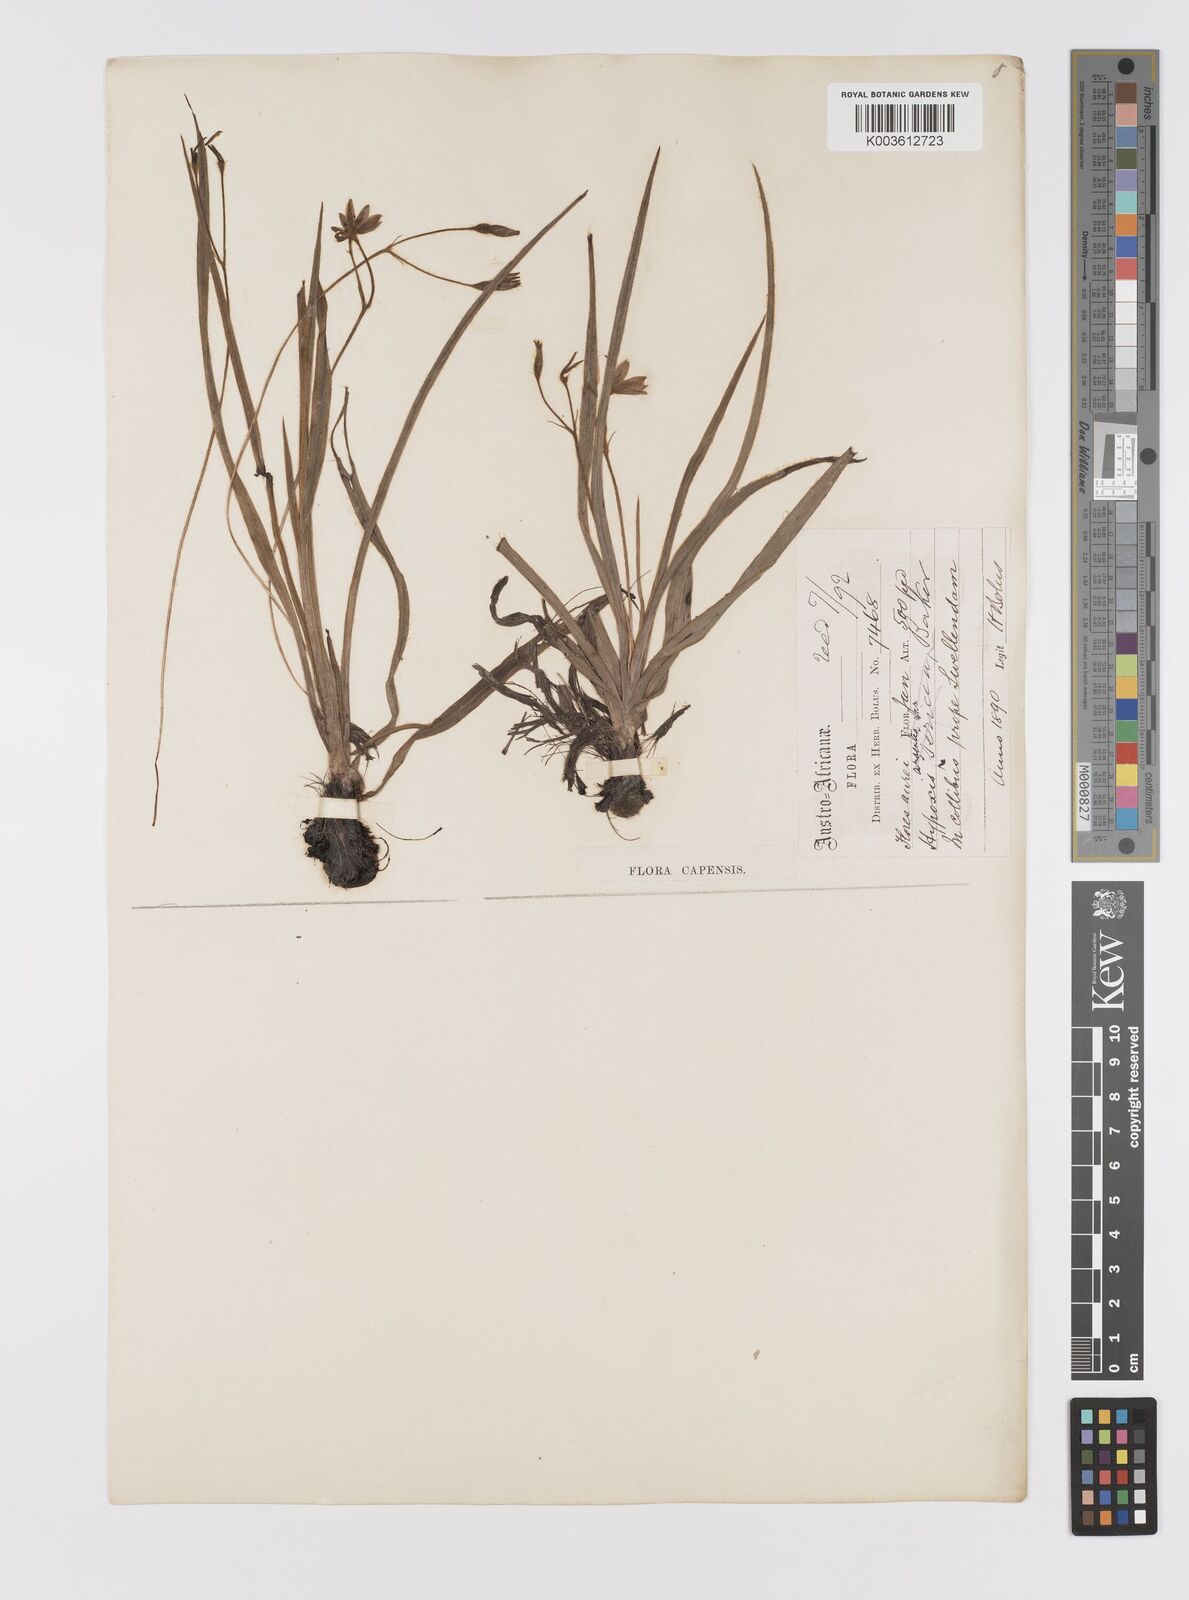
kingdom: Plantae
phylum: Tracheophyta
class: Liliopsida
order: Asparagales
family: Hypoxidaceae
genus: Hypoxis
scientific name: Hypoxis gerrardii
